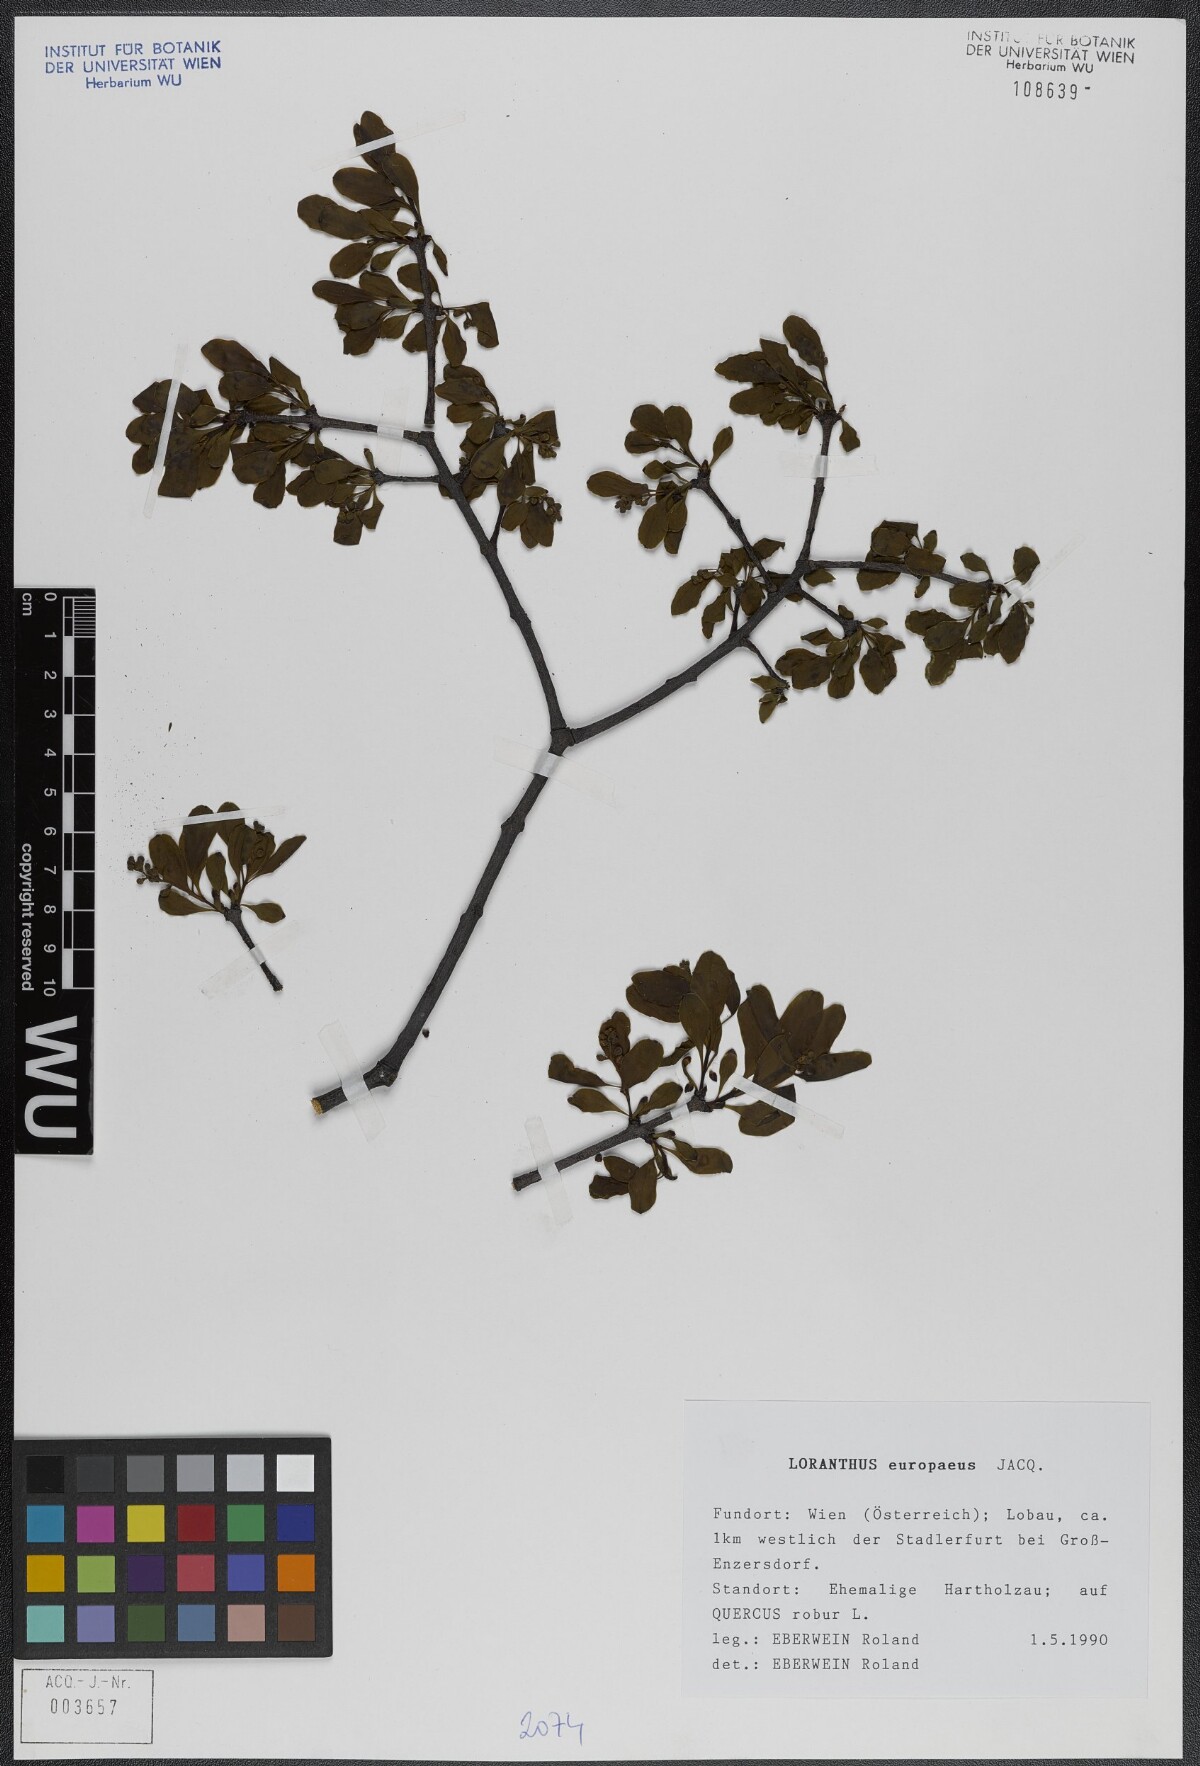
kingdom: Plantae
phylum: Tracheophyta
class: Magnoliopsida
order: Santalales
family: Loranthaceae
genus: Loranthus
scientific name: Loranthus europaeus
